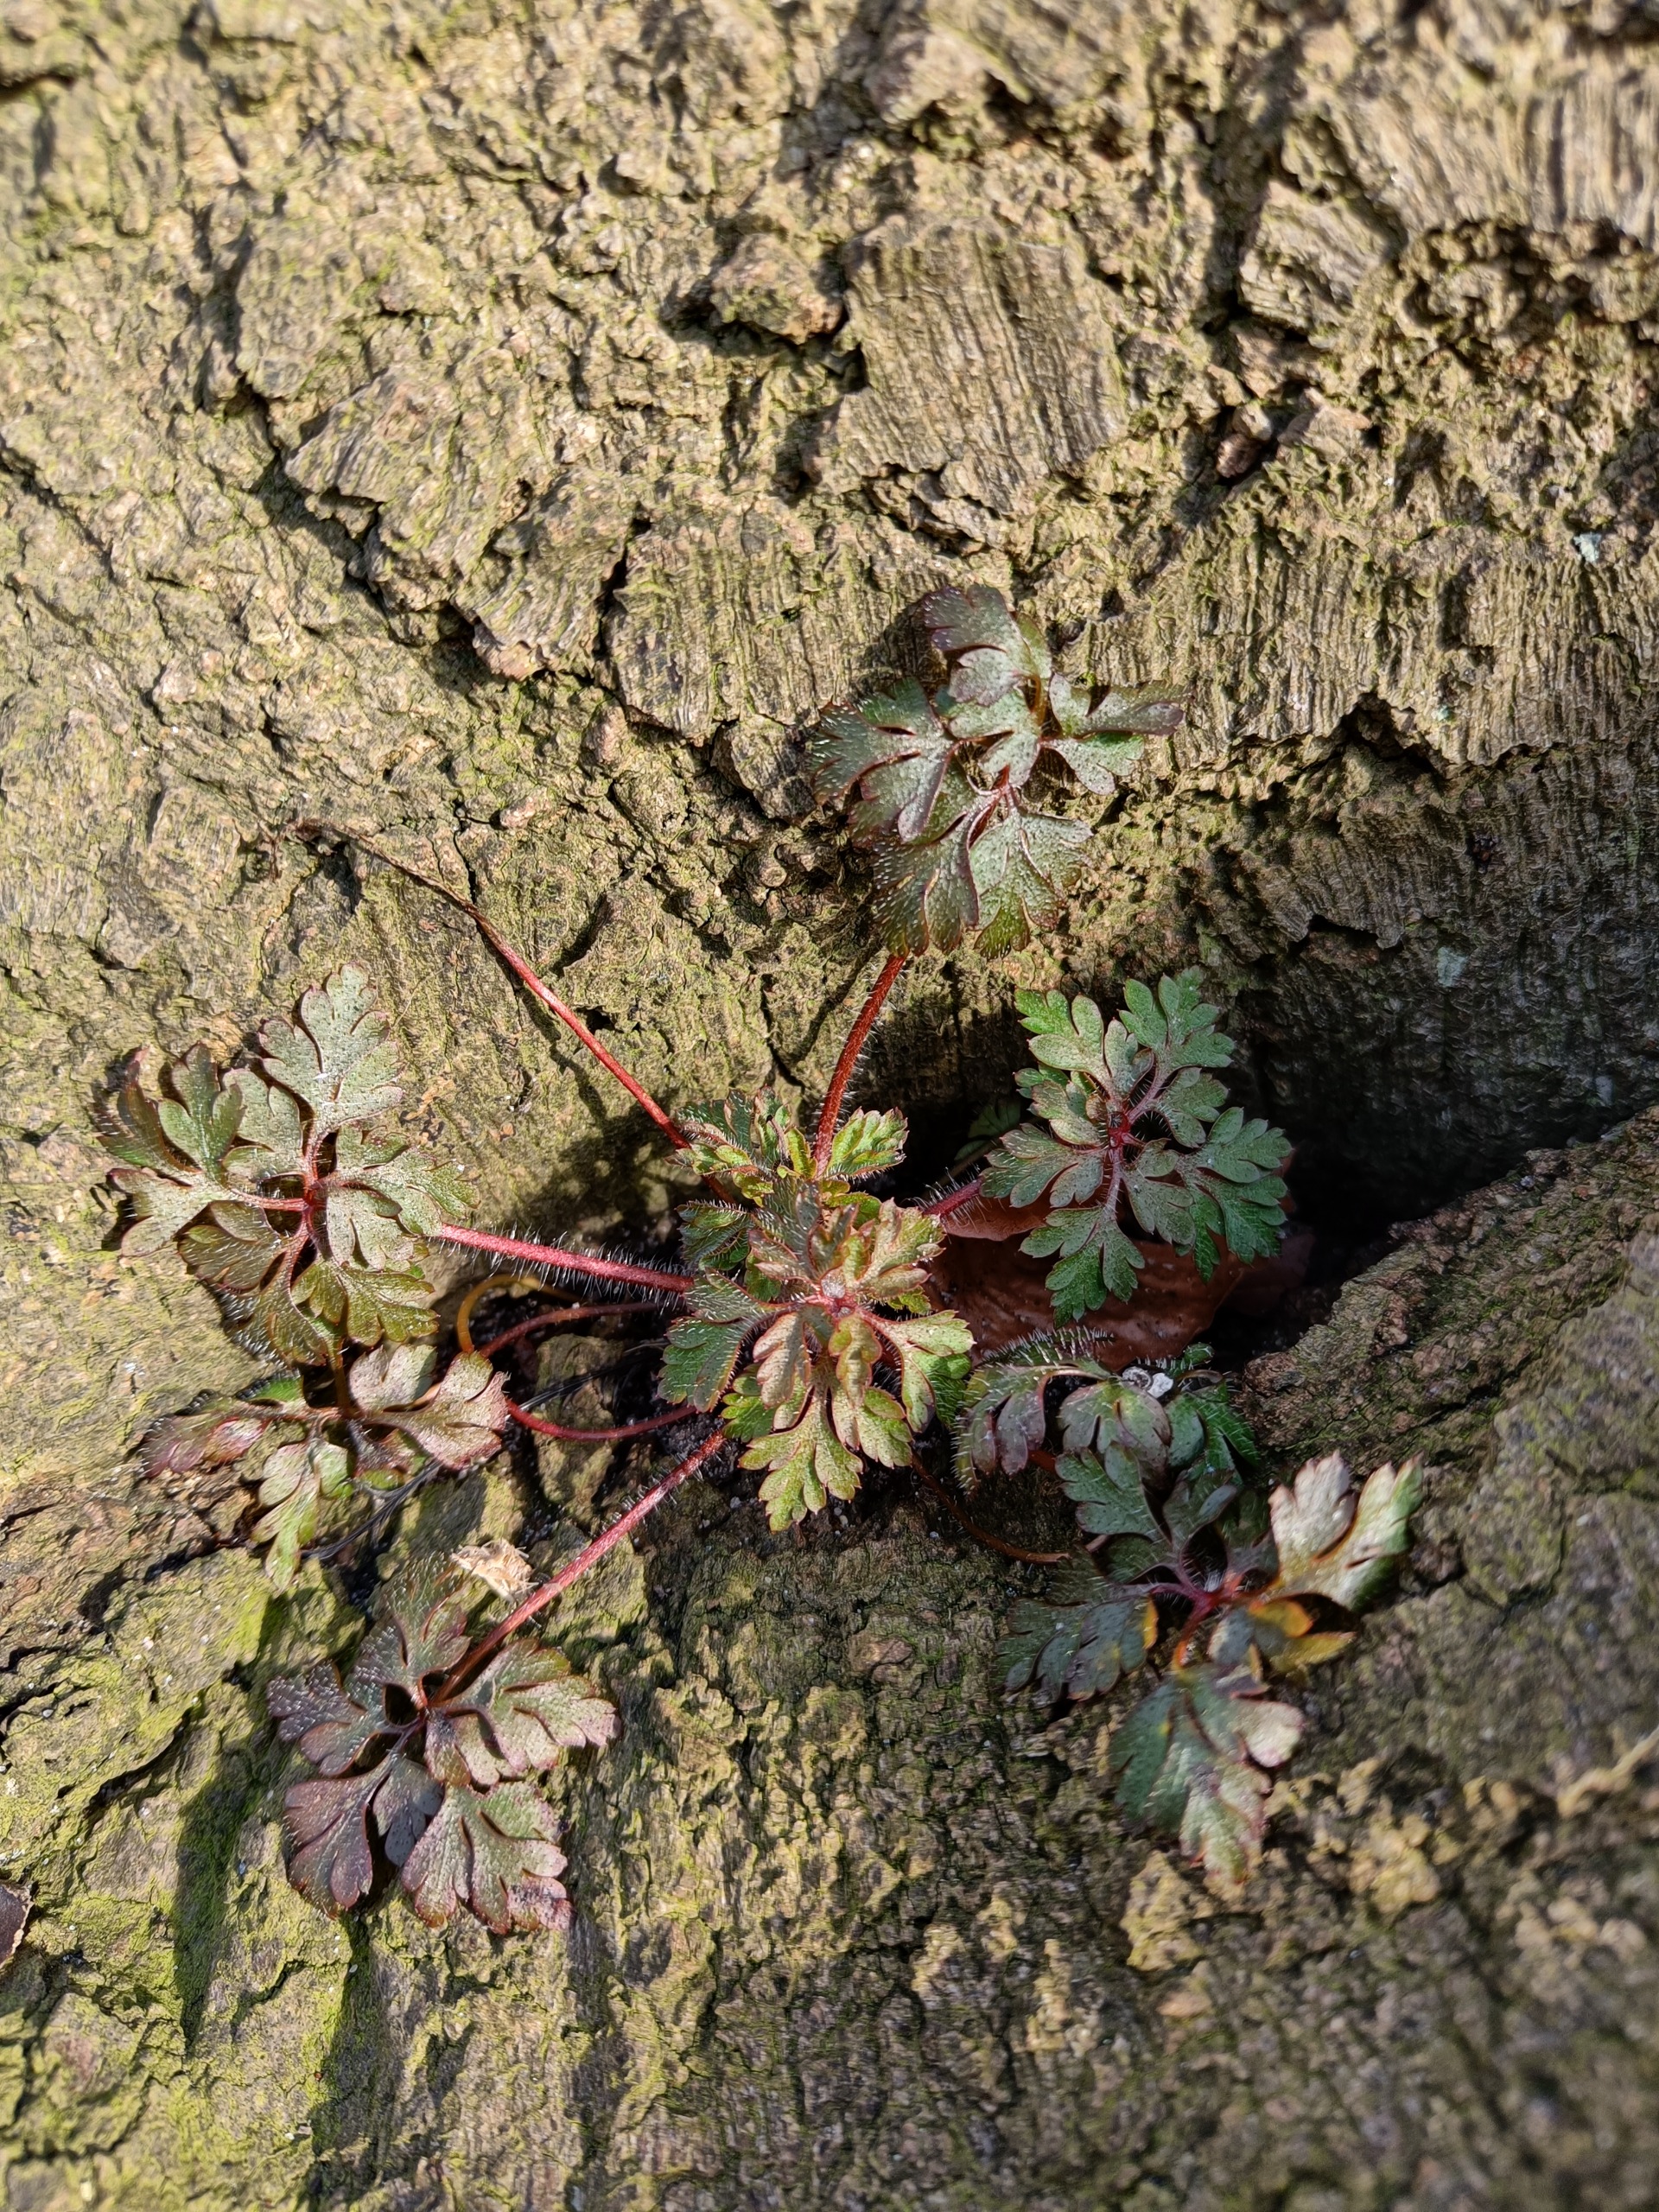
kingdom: Plantae
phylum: Tracheophyta
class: Magnoliopsida
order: Geraniales
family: Geraniaceae
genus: Geranium
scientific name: Geranium robertianum
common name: Stinkende storkenæb
